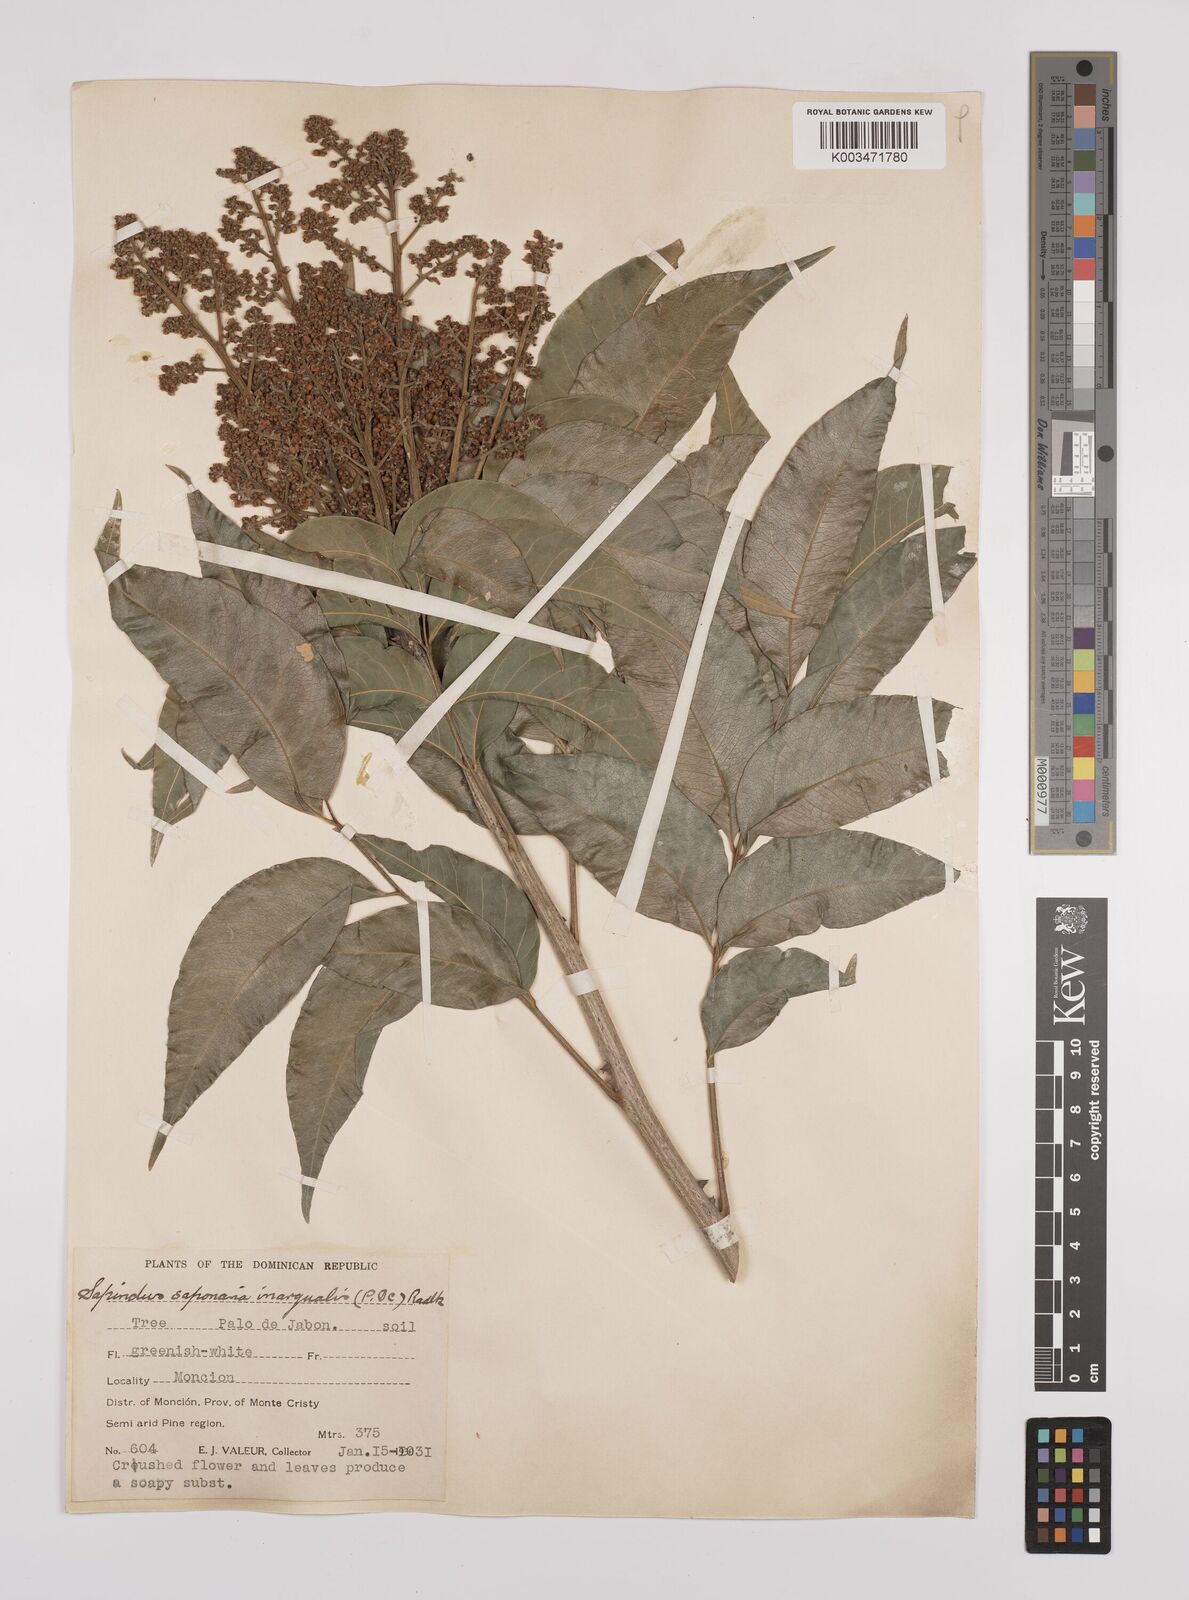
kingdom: Plantae
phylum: Tracheophyta
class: Magnoliopsida
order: Sapindales
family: Sapindaceae
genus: Sapindus
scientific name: Sapindus saponaria
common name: Wingleaf soapberry
